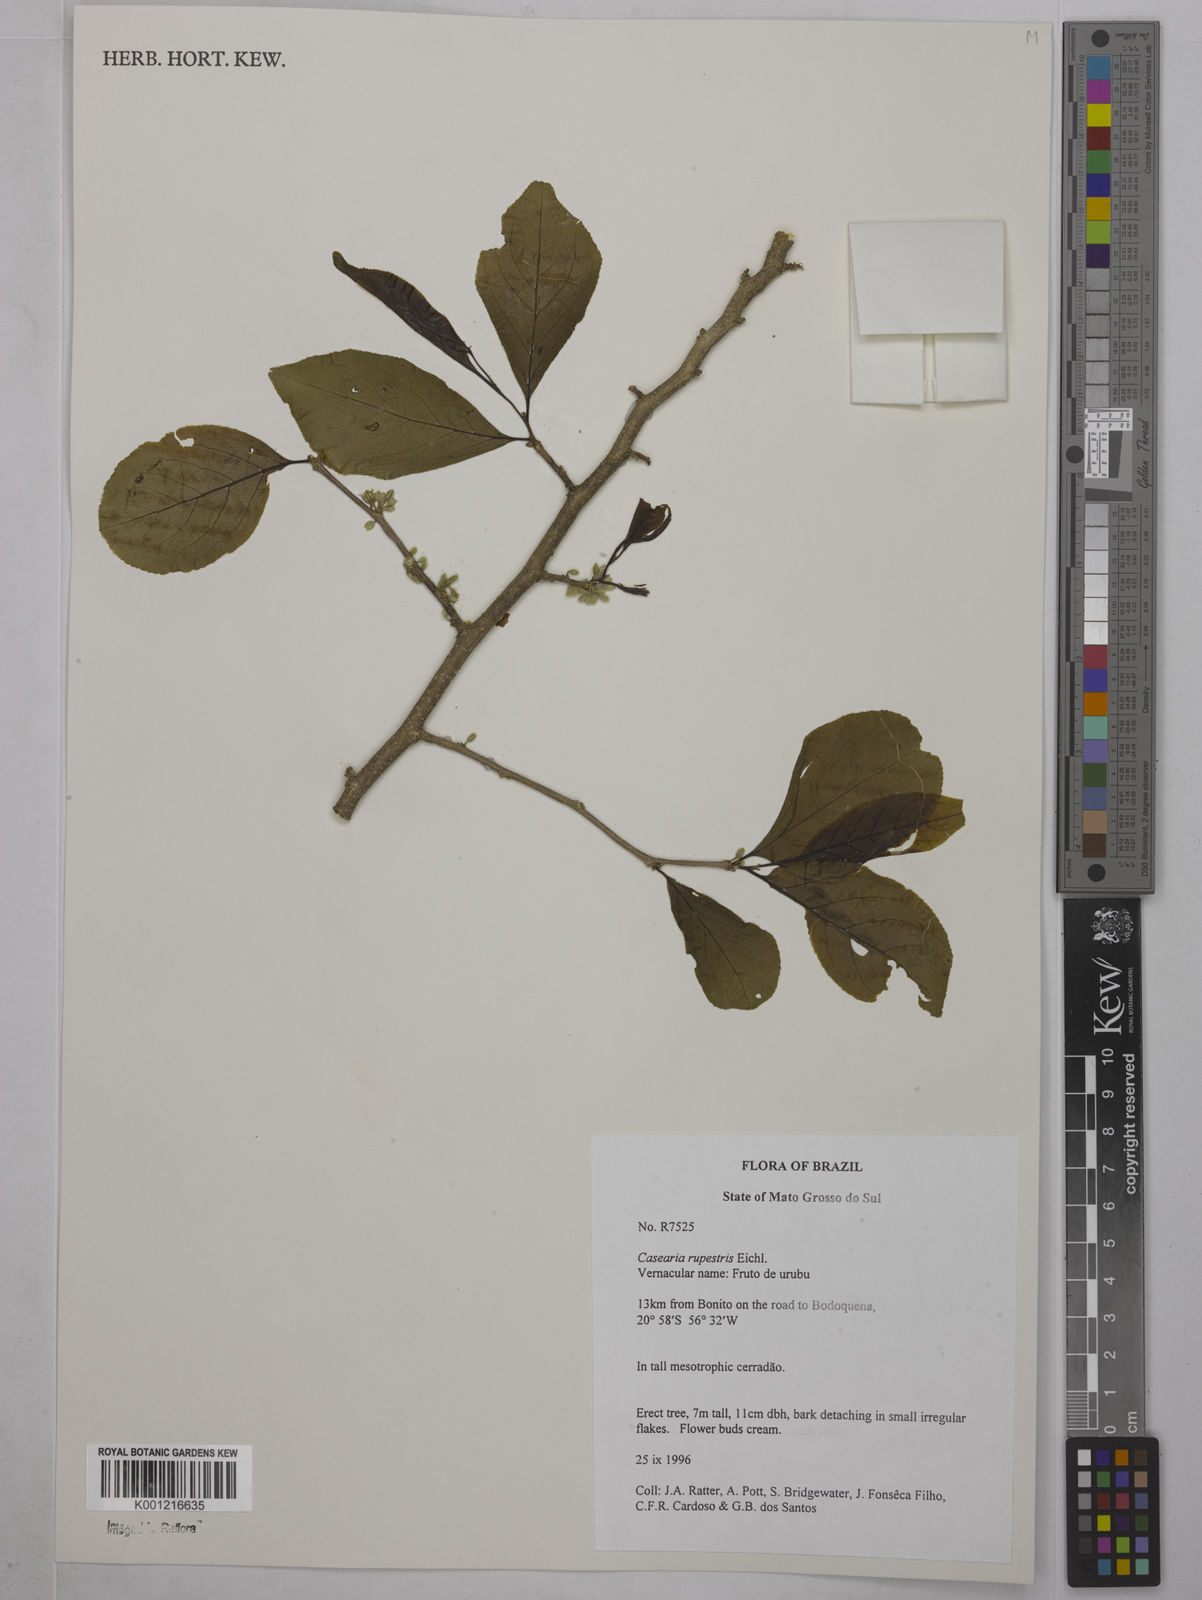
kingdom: Plantae
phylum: Tracheophyta
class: Magnoliopsida
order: Malpighiales
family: Salicaceae
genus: Casearia
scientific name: Casearia rupestris
